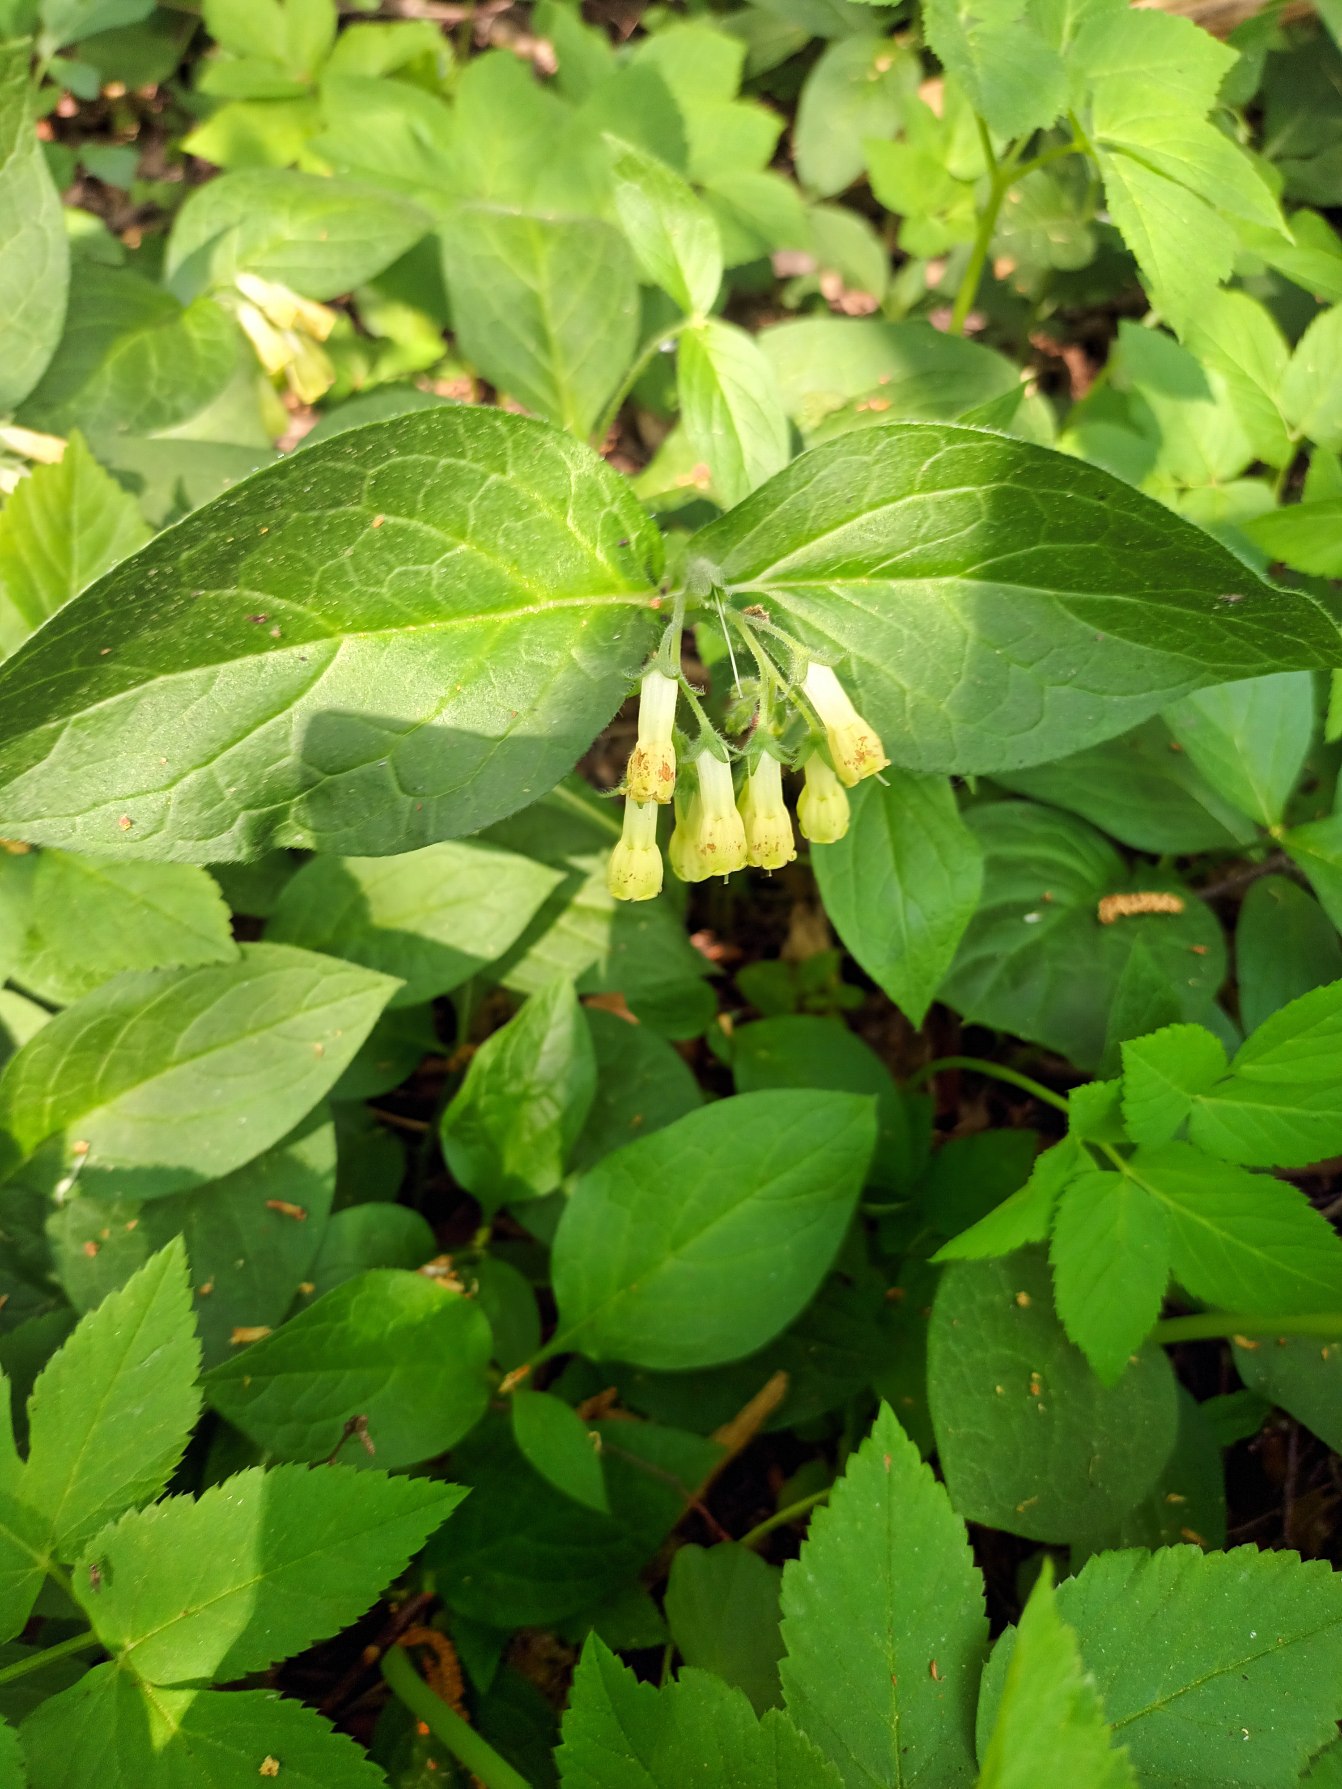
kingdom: Plantae
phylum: Tracheophyta
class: Magnoliopsida
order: Boraginales
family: Boraginaceae
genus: Symphytum
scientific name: Symphytum tuberosum
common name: Knoldet kulsukker
